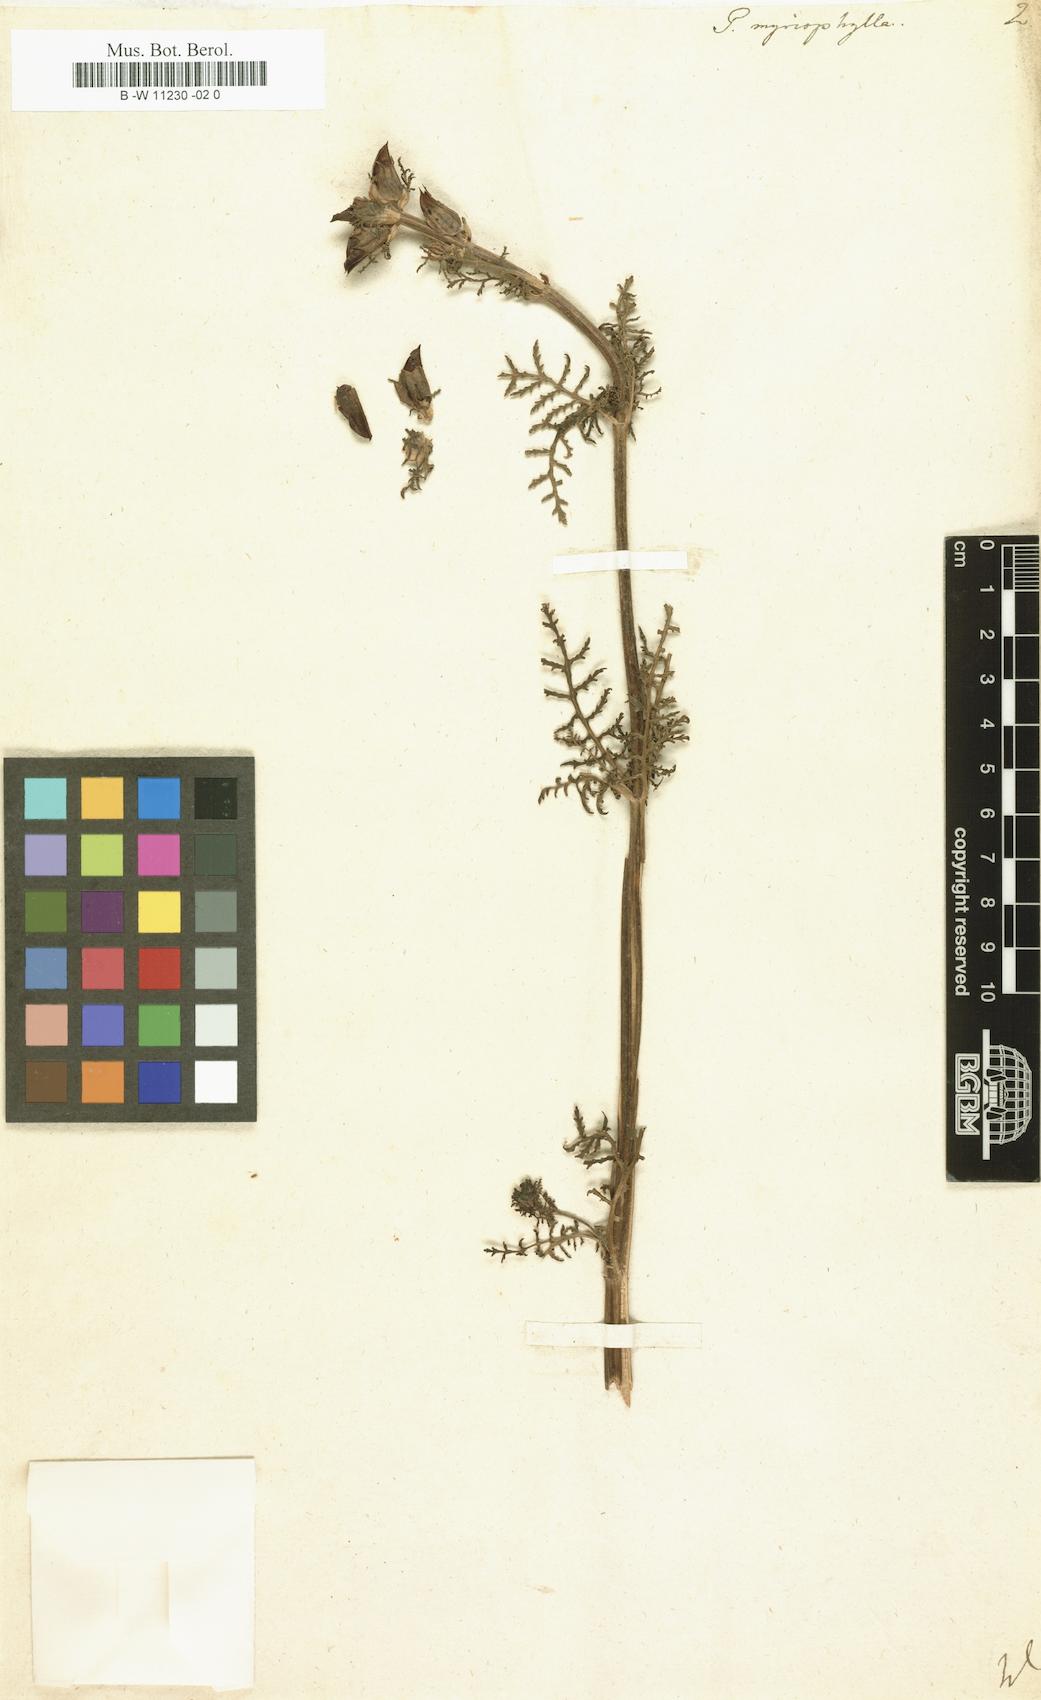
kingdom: Plantae
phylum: Tracheophyta
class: Magnoliopsida
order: Lamiales
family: Orobanchaceae
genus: Pedicularis
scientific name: Pedicularis myriophylla
